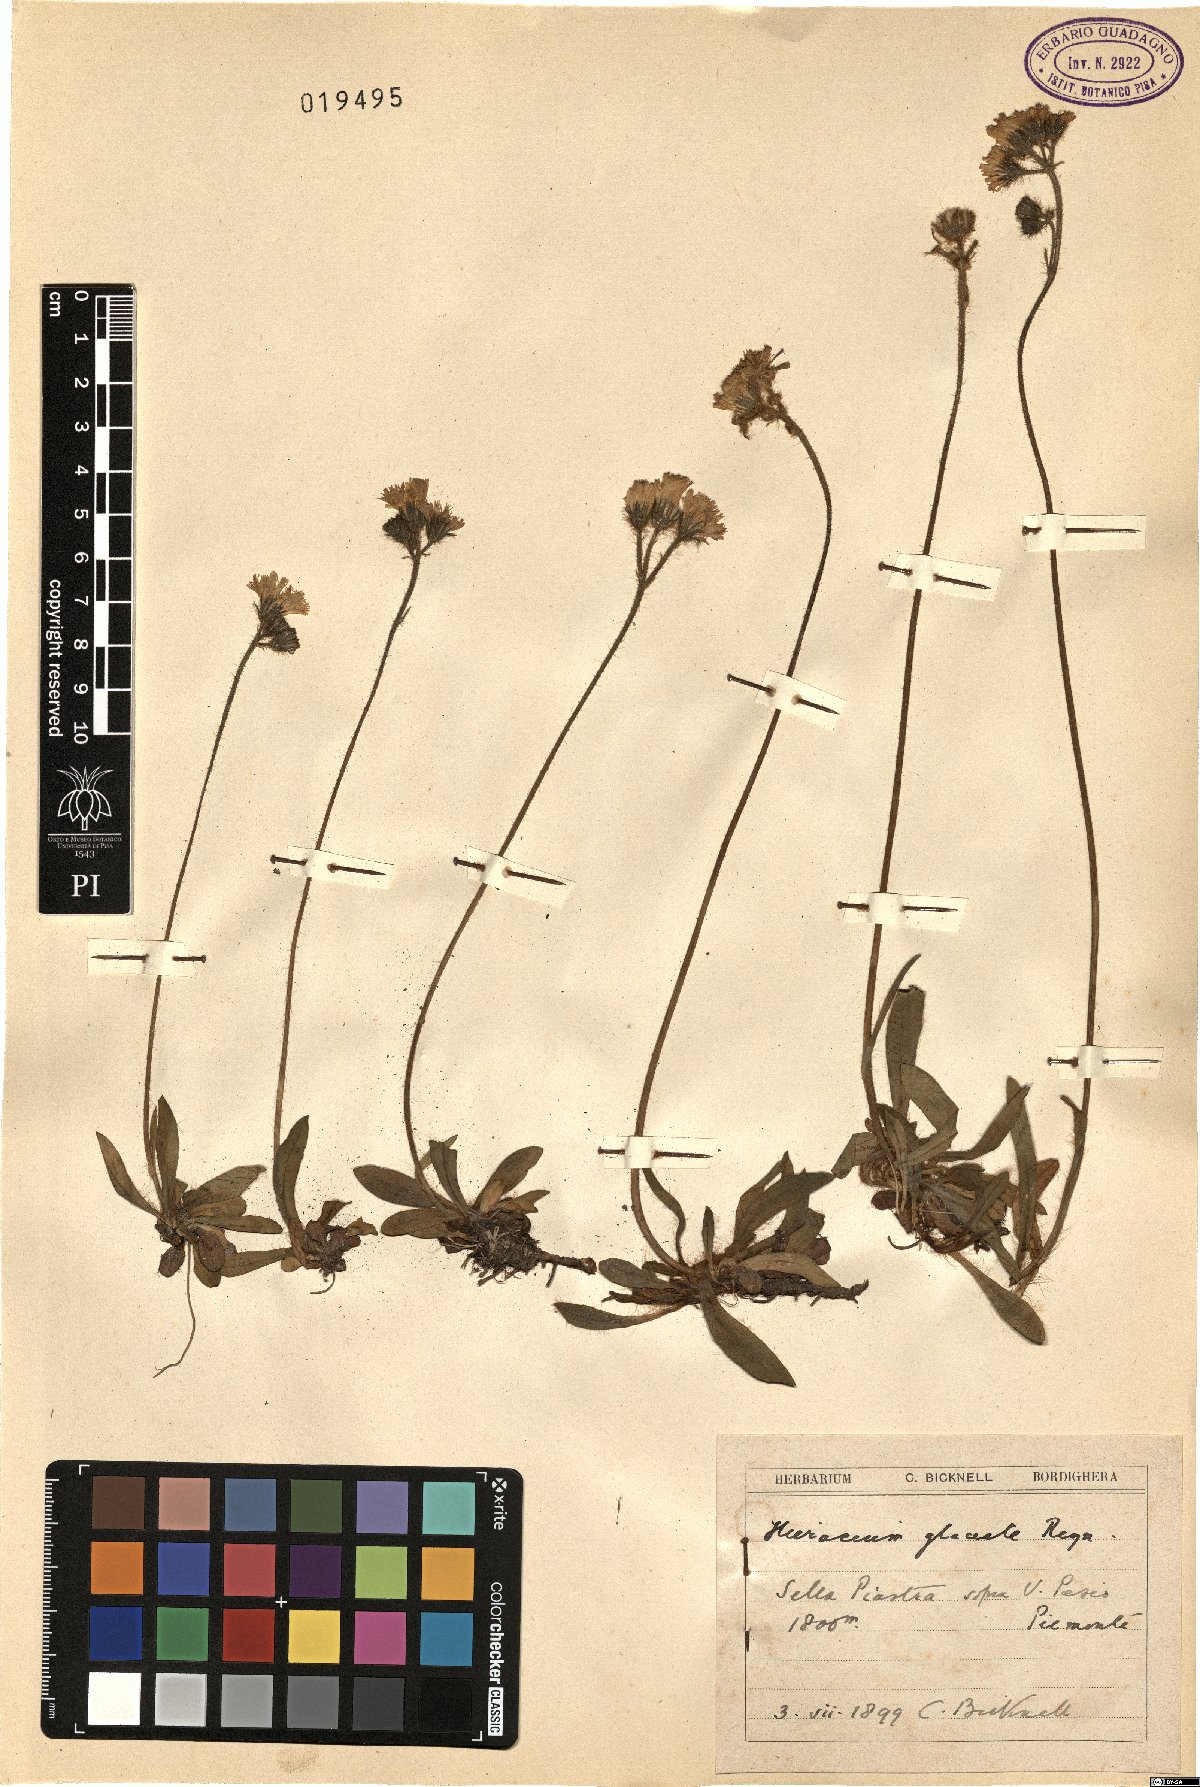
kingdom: Plantae
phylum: Tracheophyta
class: Magnoliopsida
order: Asterales
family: Asteraceae
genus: Pilosella
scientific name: Pilosella glacialis
